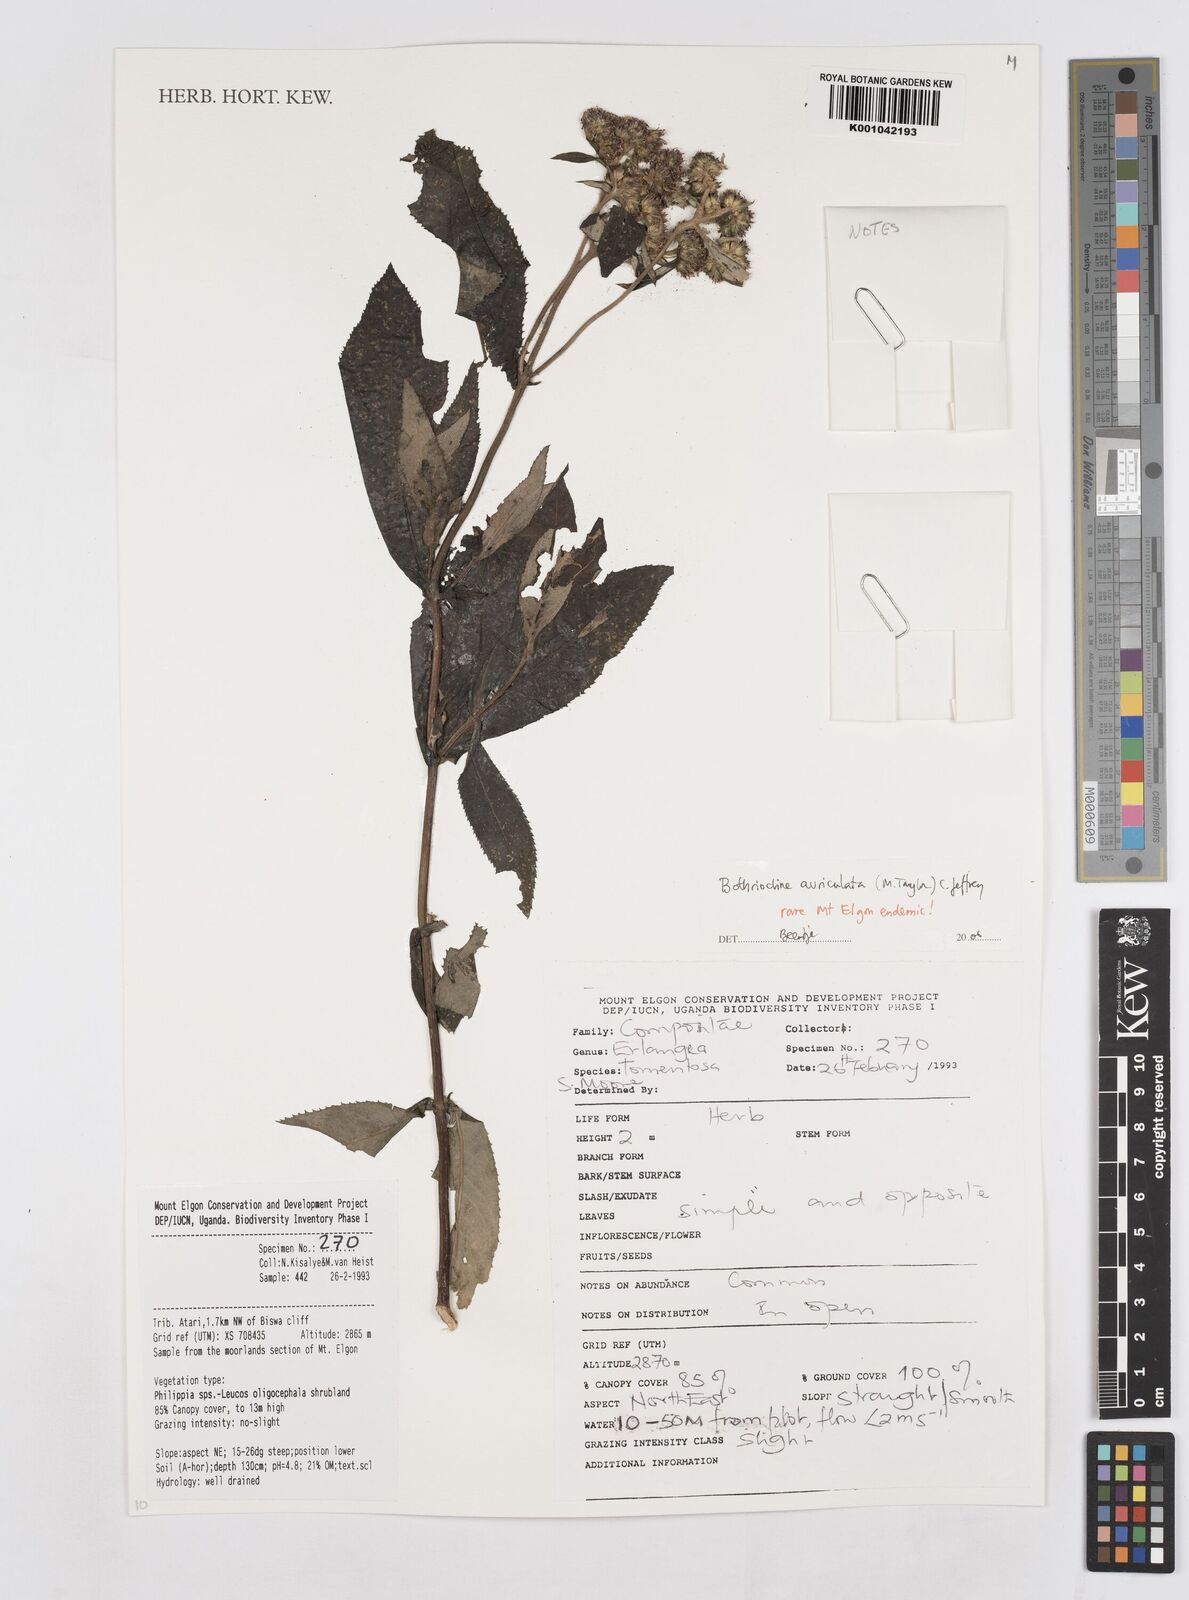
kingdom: Plantae
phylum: Tracheophyta
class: Magnoliopsida
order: Asterales
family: Asteraceae
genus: Bothriocline
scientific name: Bothriocline auriculata
